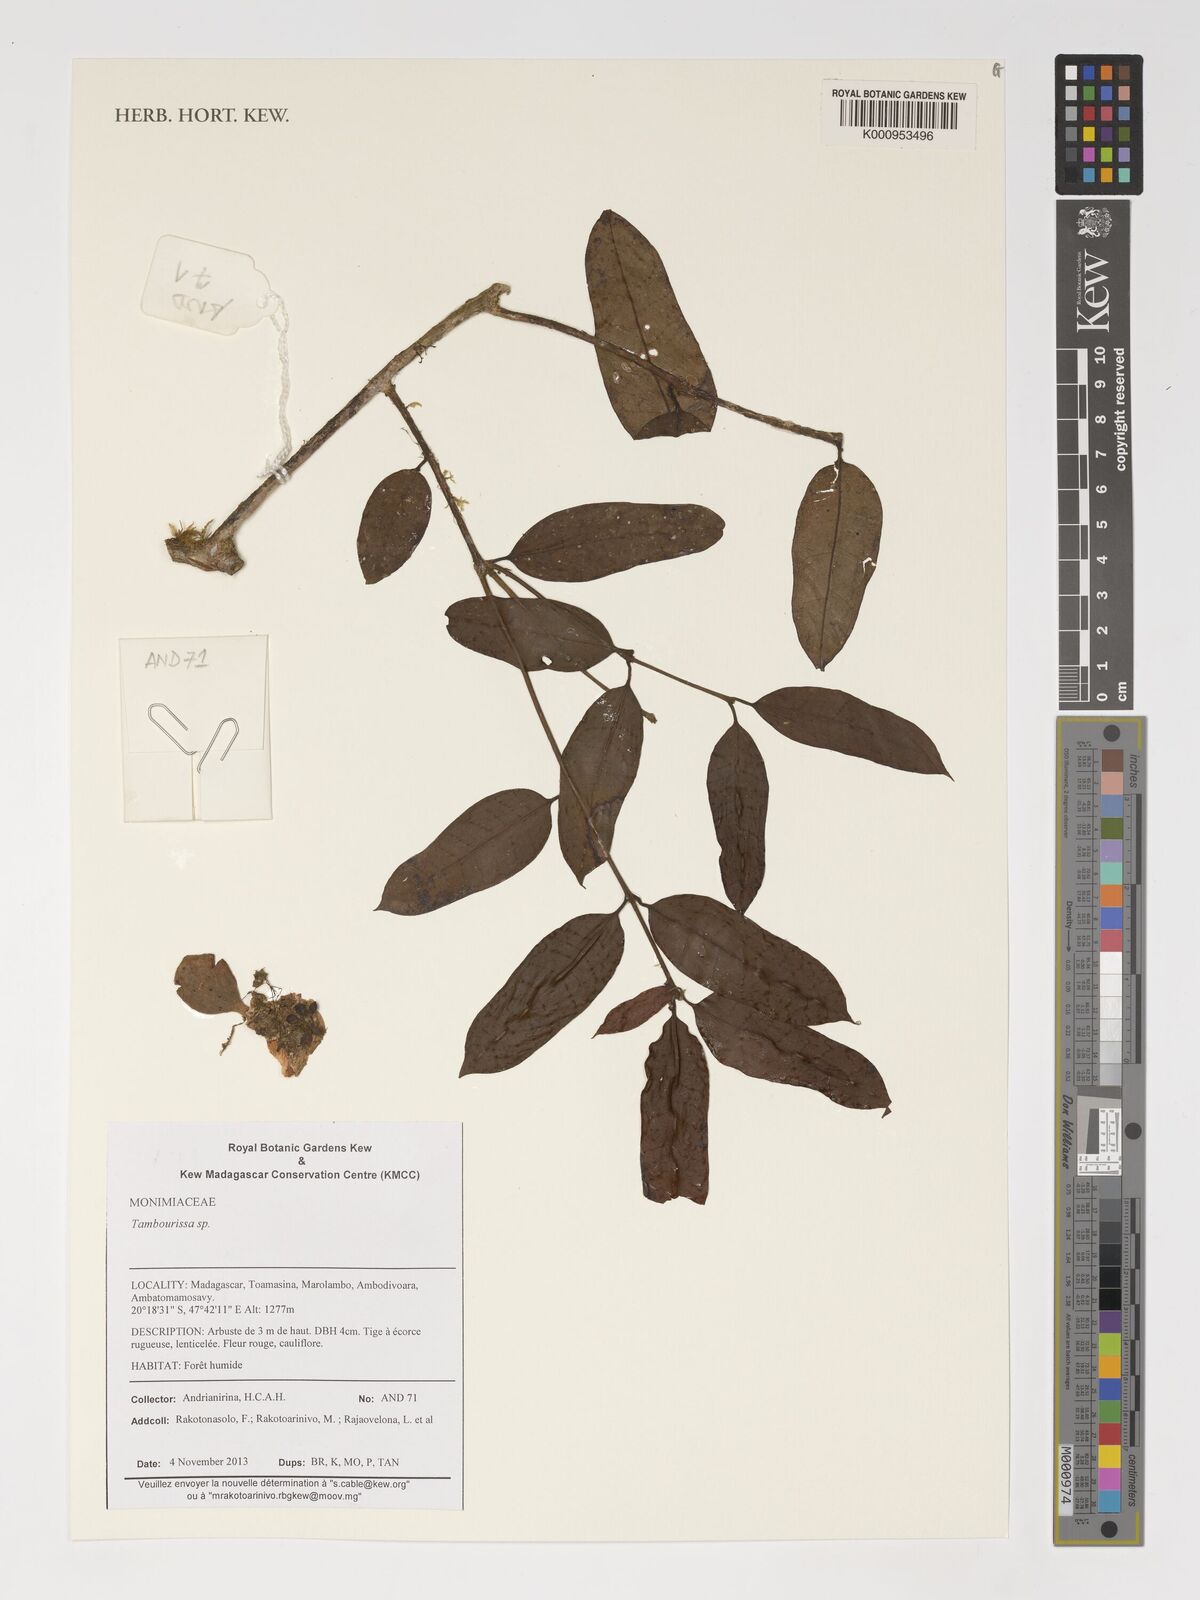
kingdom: Plantae
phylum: Tracheophyta
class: Magnoliopsida
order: Laurales
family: Monimiaceae
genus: Tambourissa
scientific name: Tambourissa
